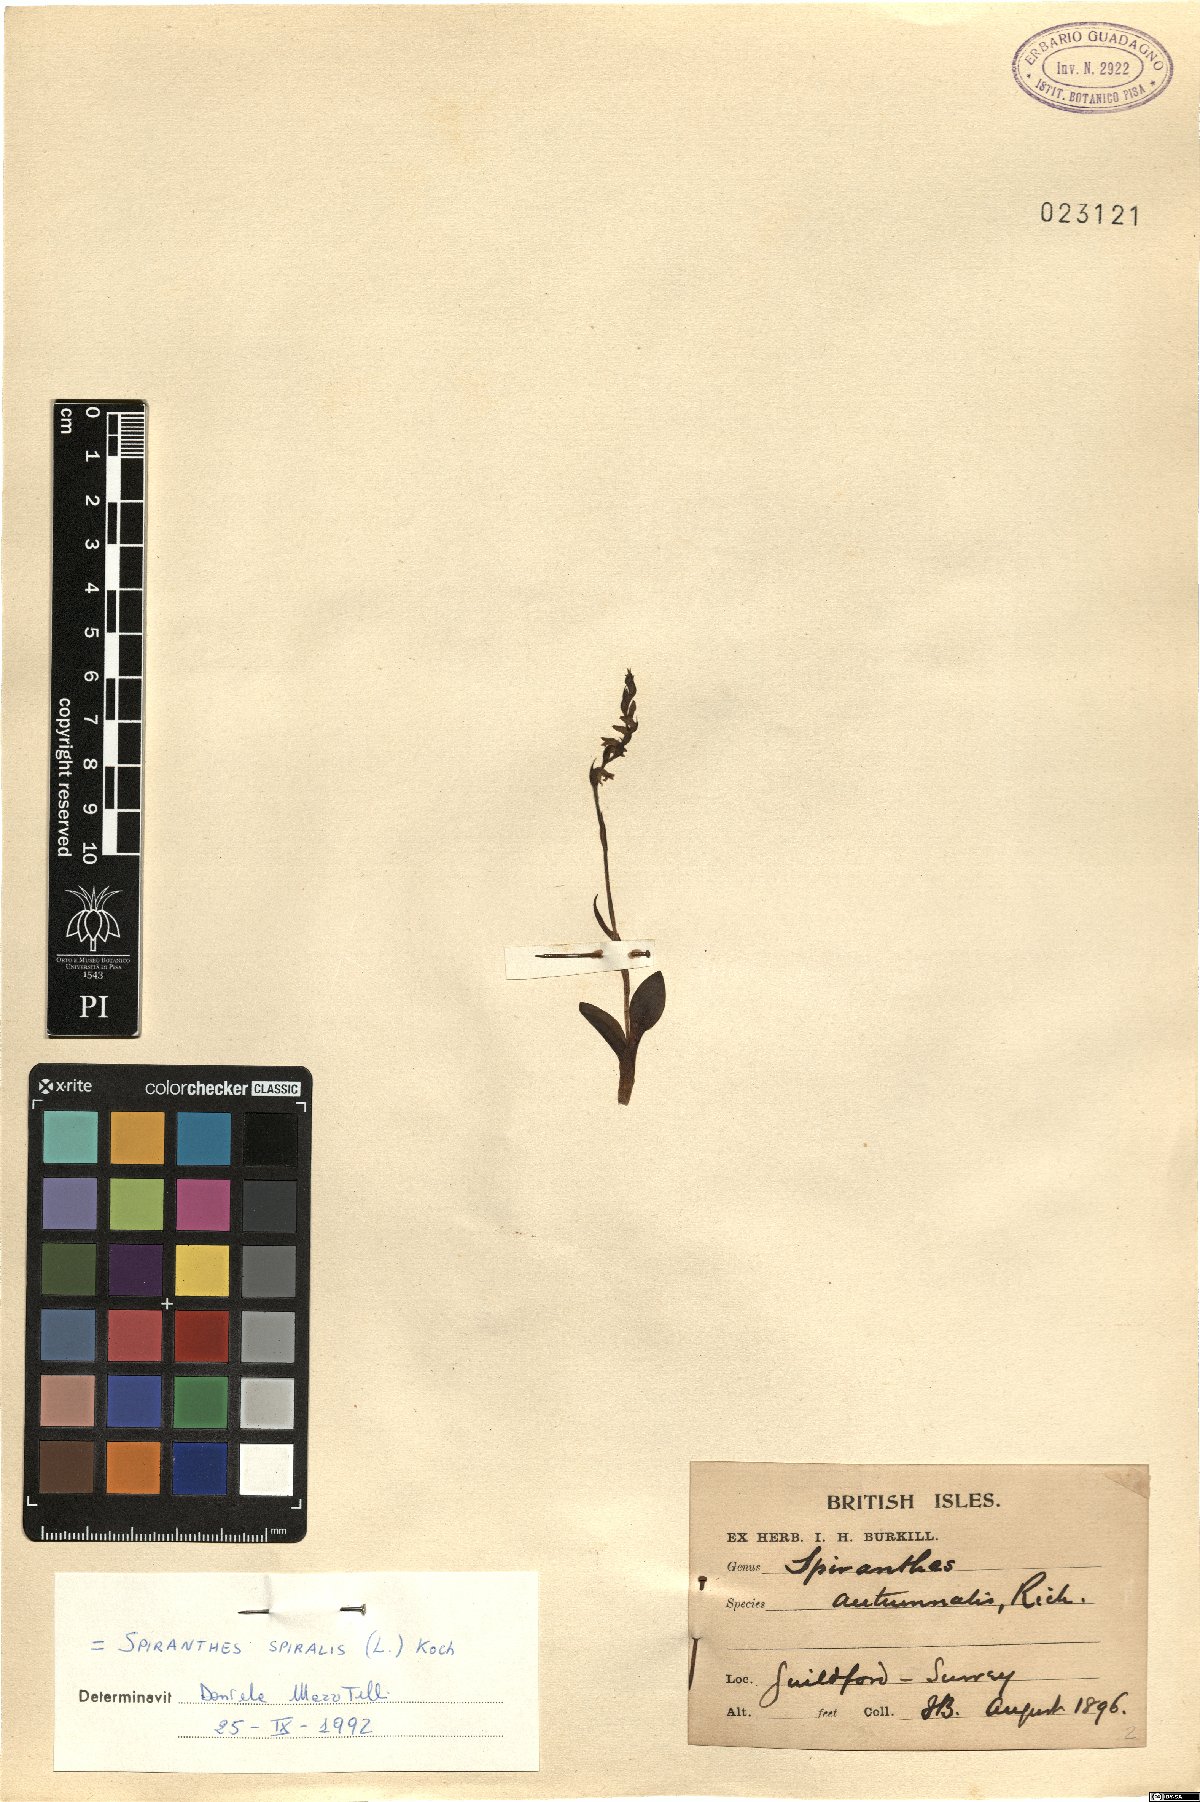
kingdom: Plantae
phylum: Tracheophyta
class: Liliopsida
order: Asparagales
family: Orchidaceae
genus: Spiranthes
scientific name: Spiranthes spiralis
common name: Autumn lady's-tresses
